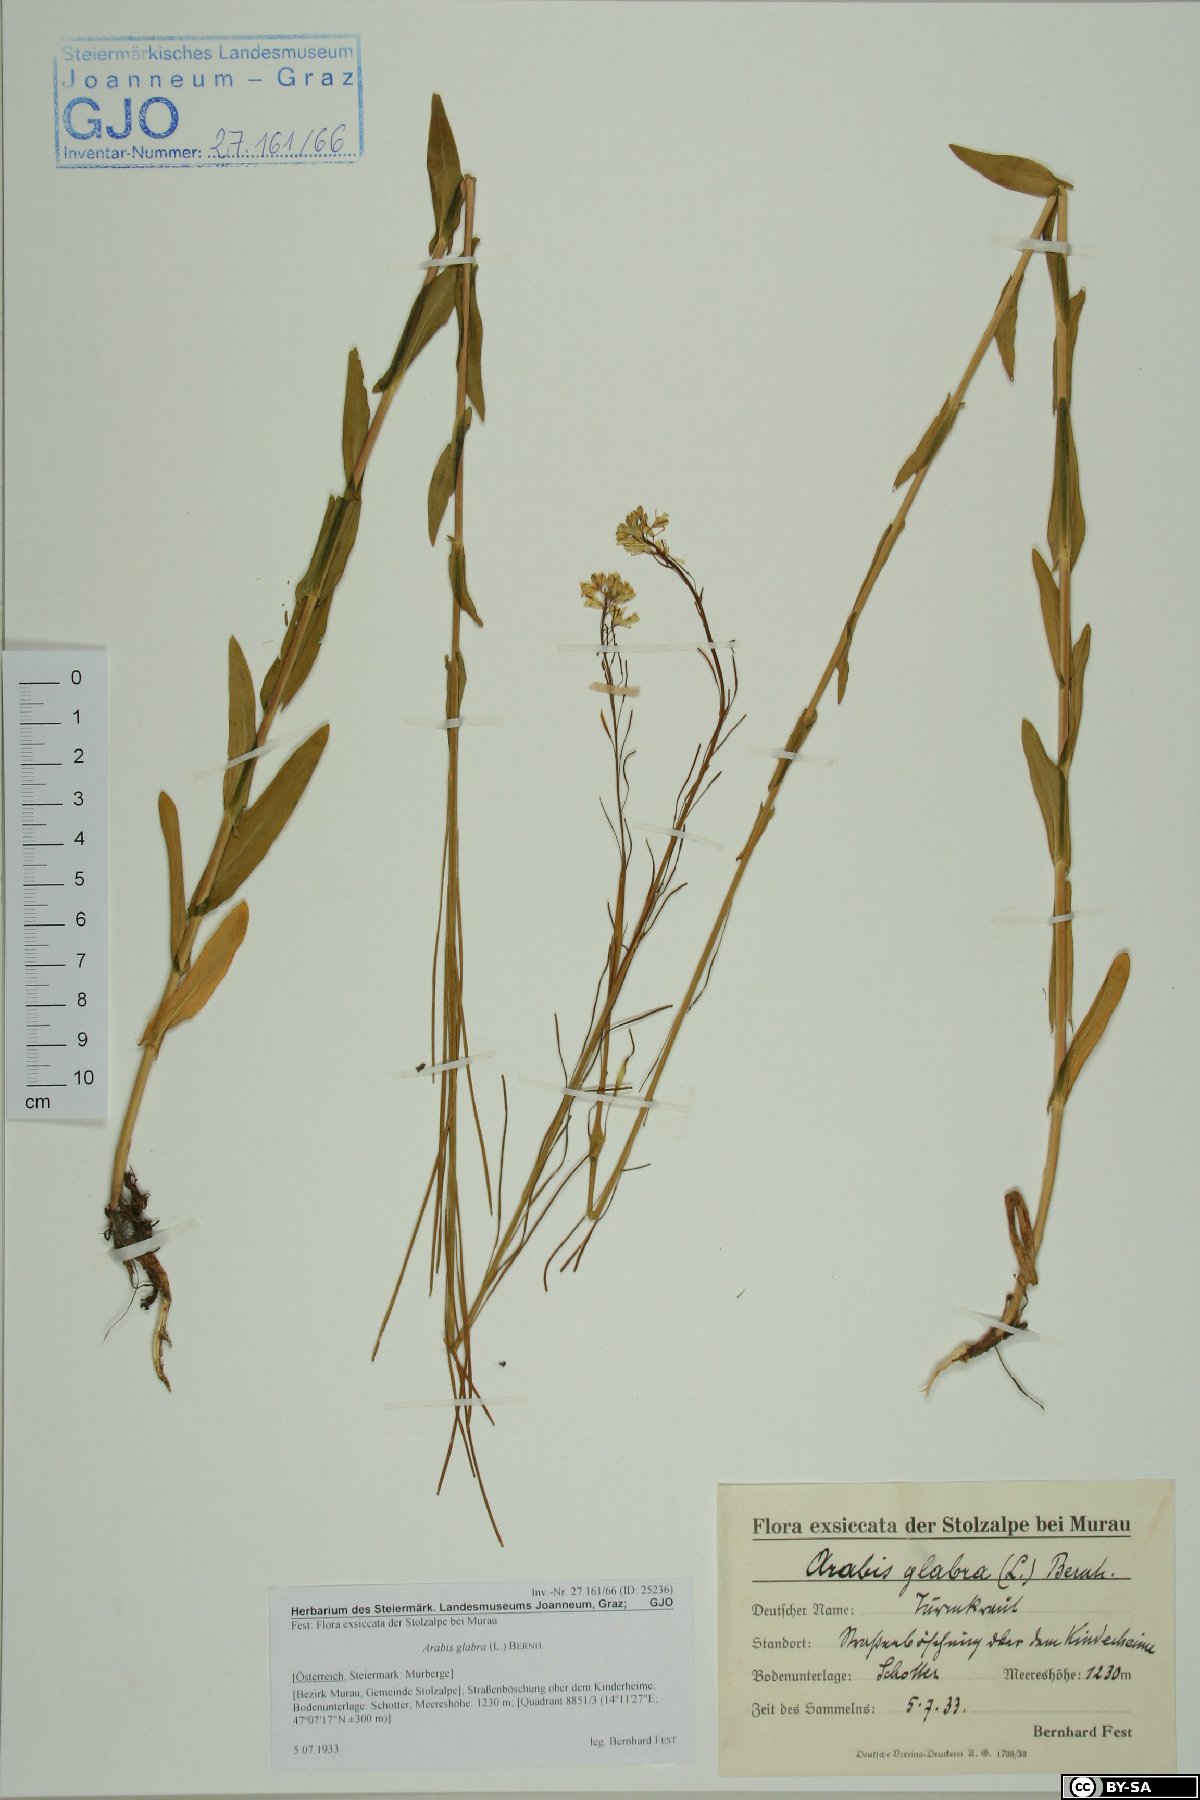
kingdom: Plantae
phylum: Tracheophyta
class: Magnoliopsida
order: Brassicales
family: Brassicaceae
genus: Turritis
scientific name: Turritis glabra
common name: Tower rockcress
